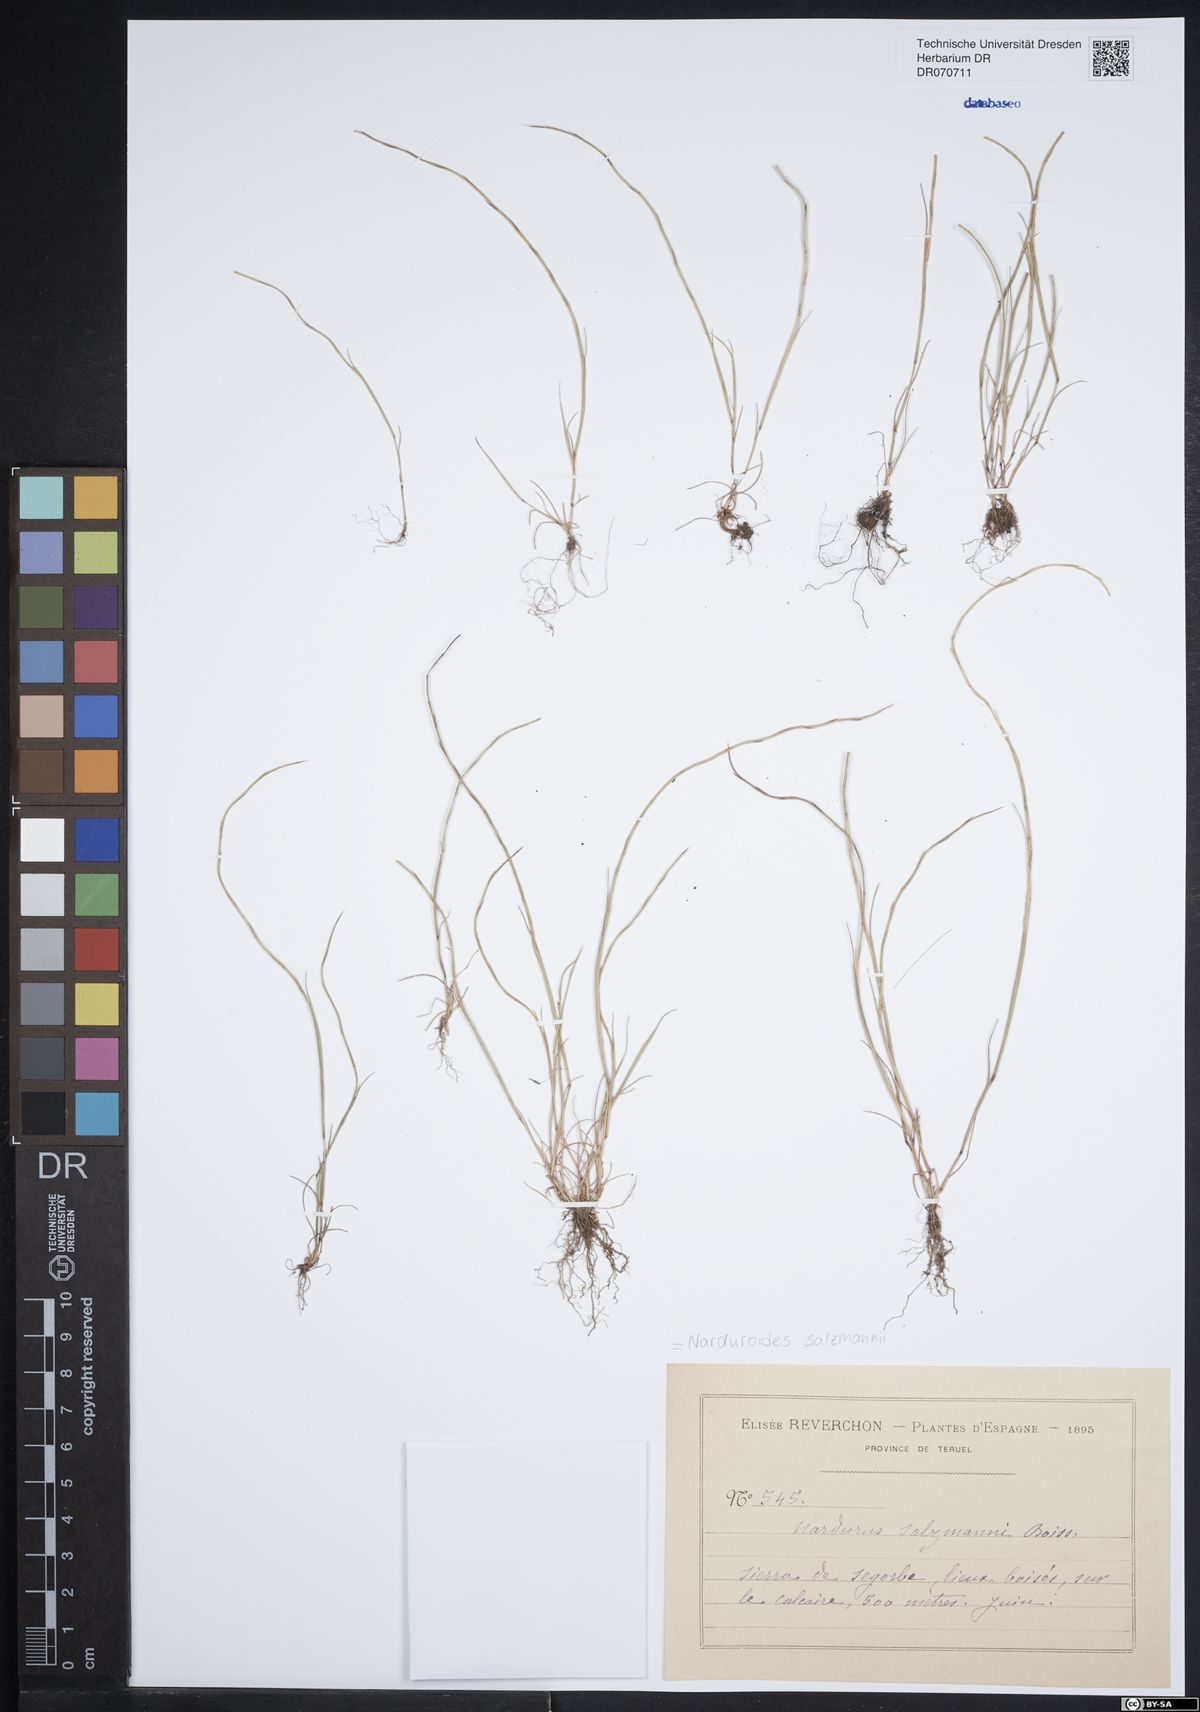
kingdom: Plantae
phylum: Tracheophyta
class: Liliopsida
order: Poales
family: Poaceae
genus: Festuca
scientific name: Festuca salzmannii
